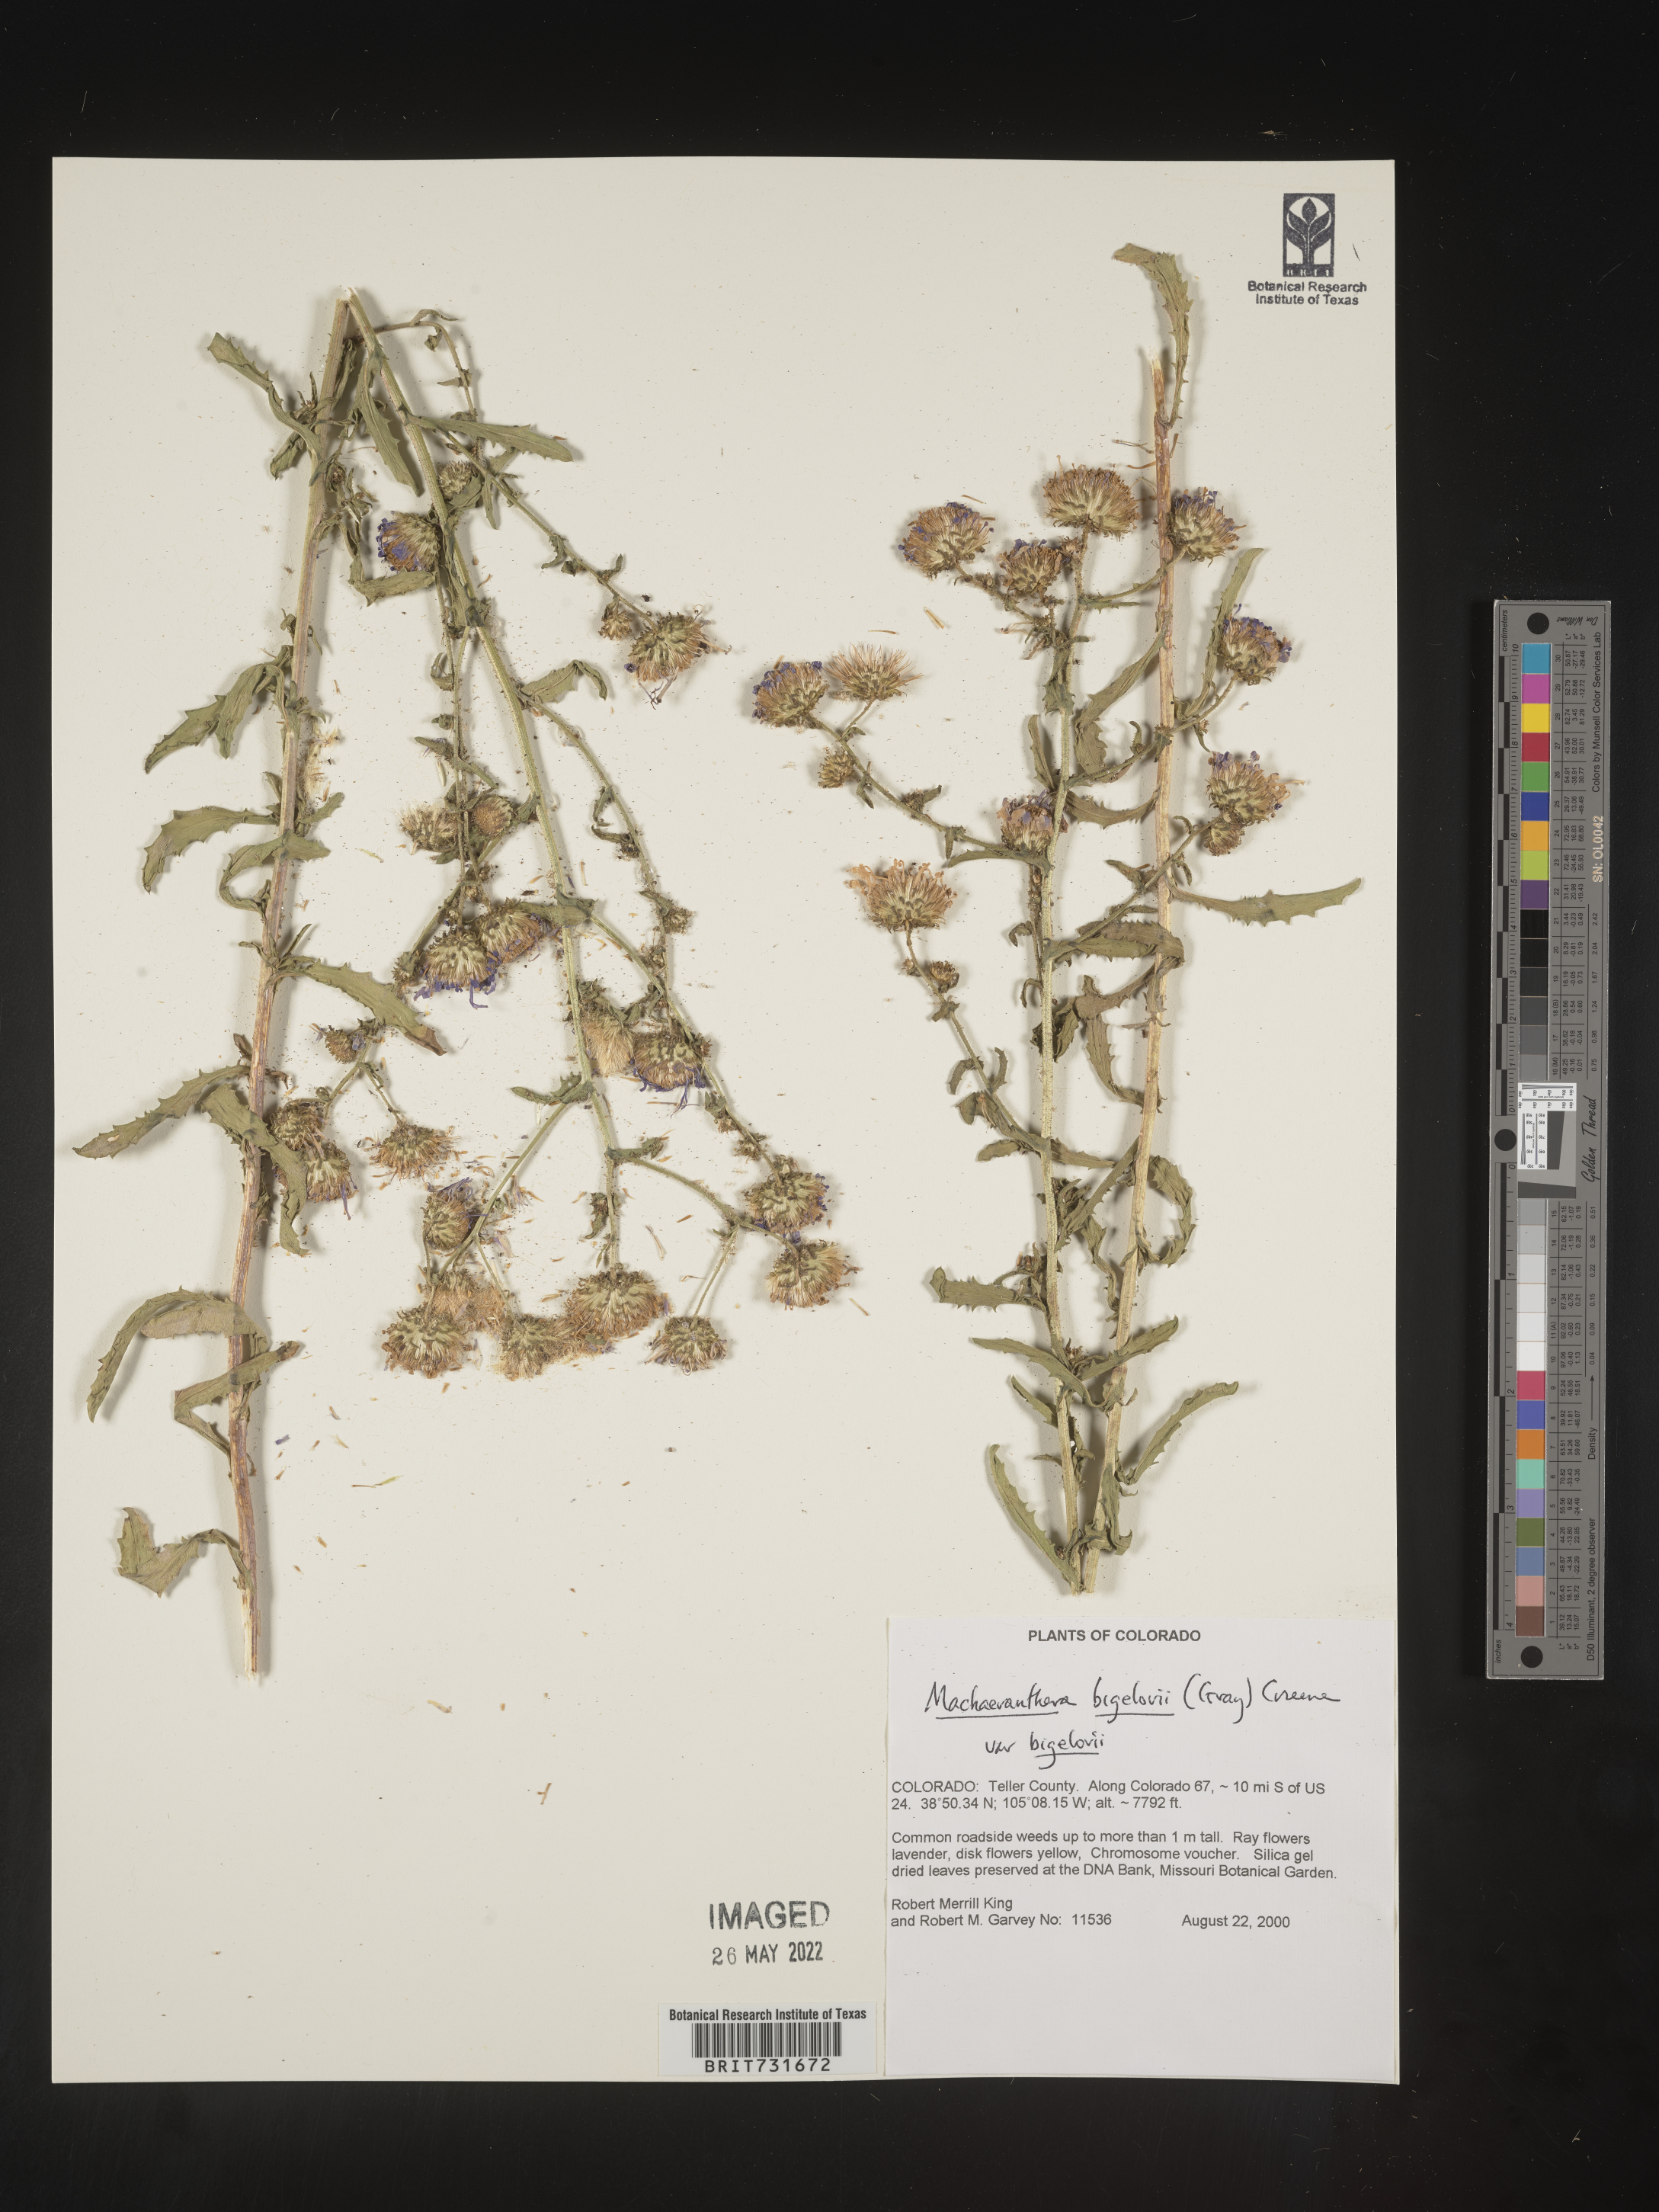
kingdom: Plantae
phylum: Tracheophyta
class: Magnoliopsida
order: Asterales
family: Asteraceae
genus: Dieteria
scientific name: Dieteria bigelovii
